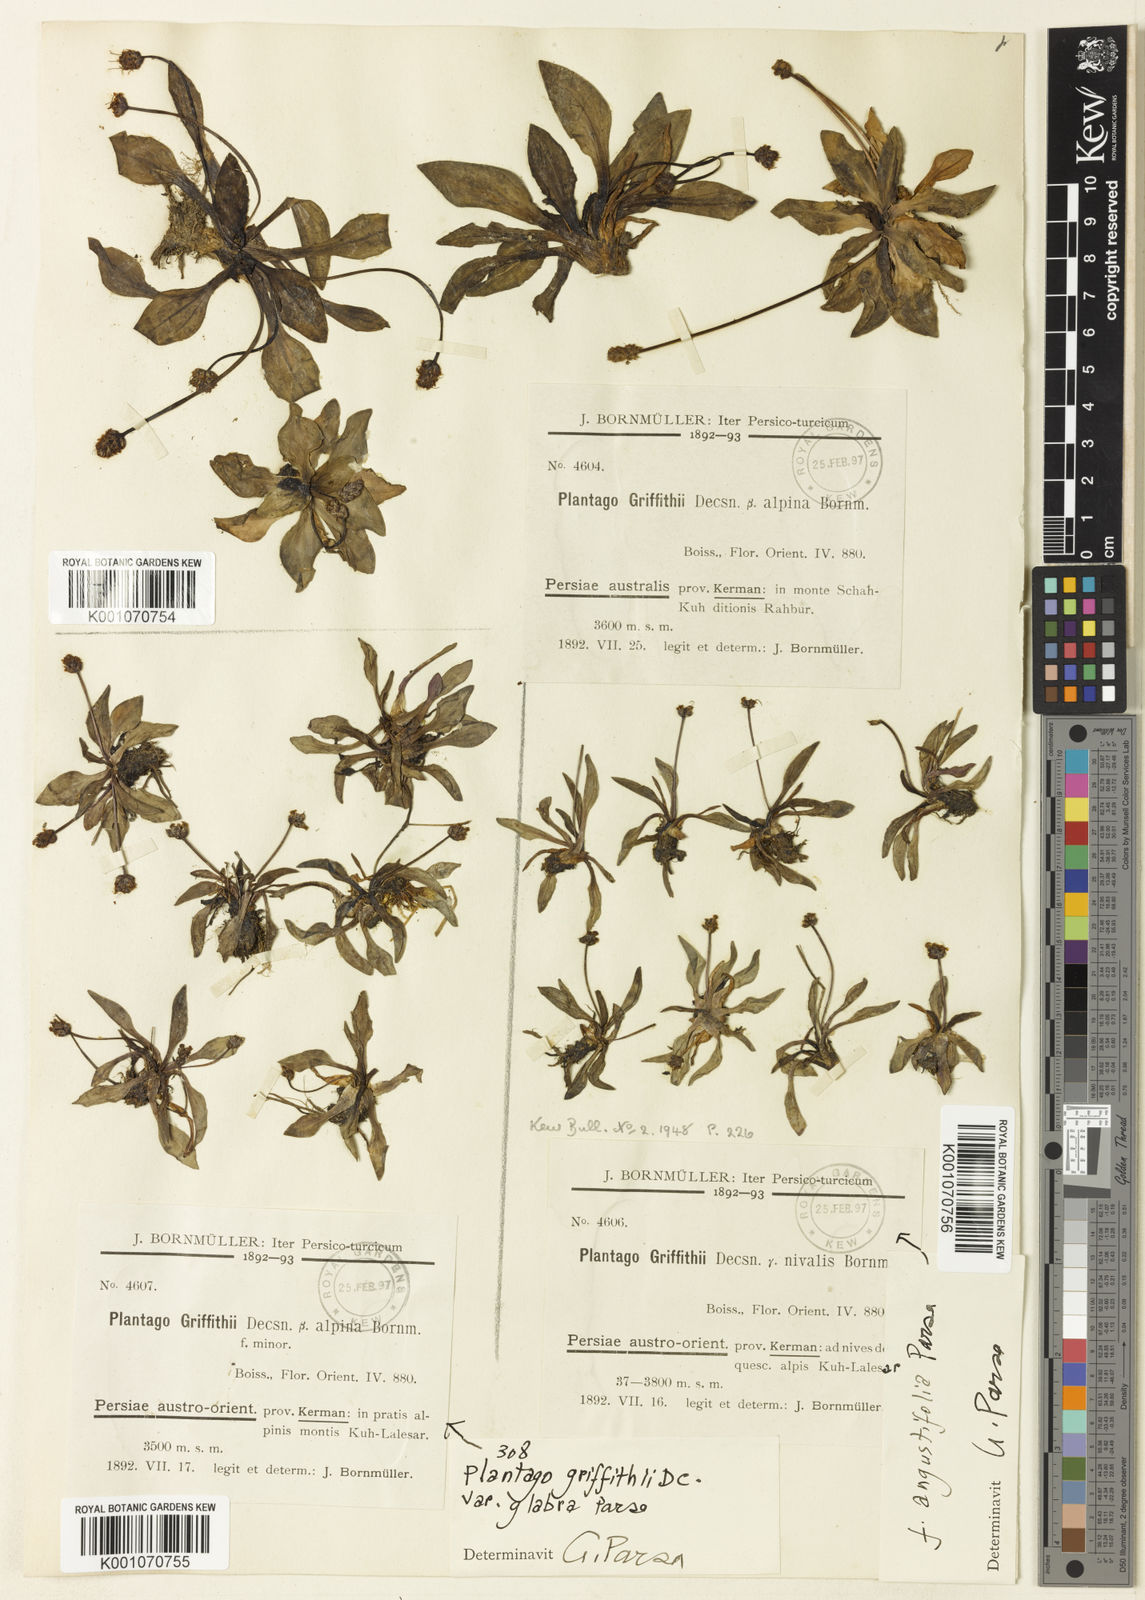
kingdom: Plantae
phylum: Tracheophyta
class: Magnoliopsida
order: Lamiales
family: Plantaginaceae
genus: Plantago
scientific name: Plantago
